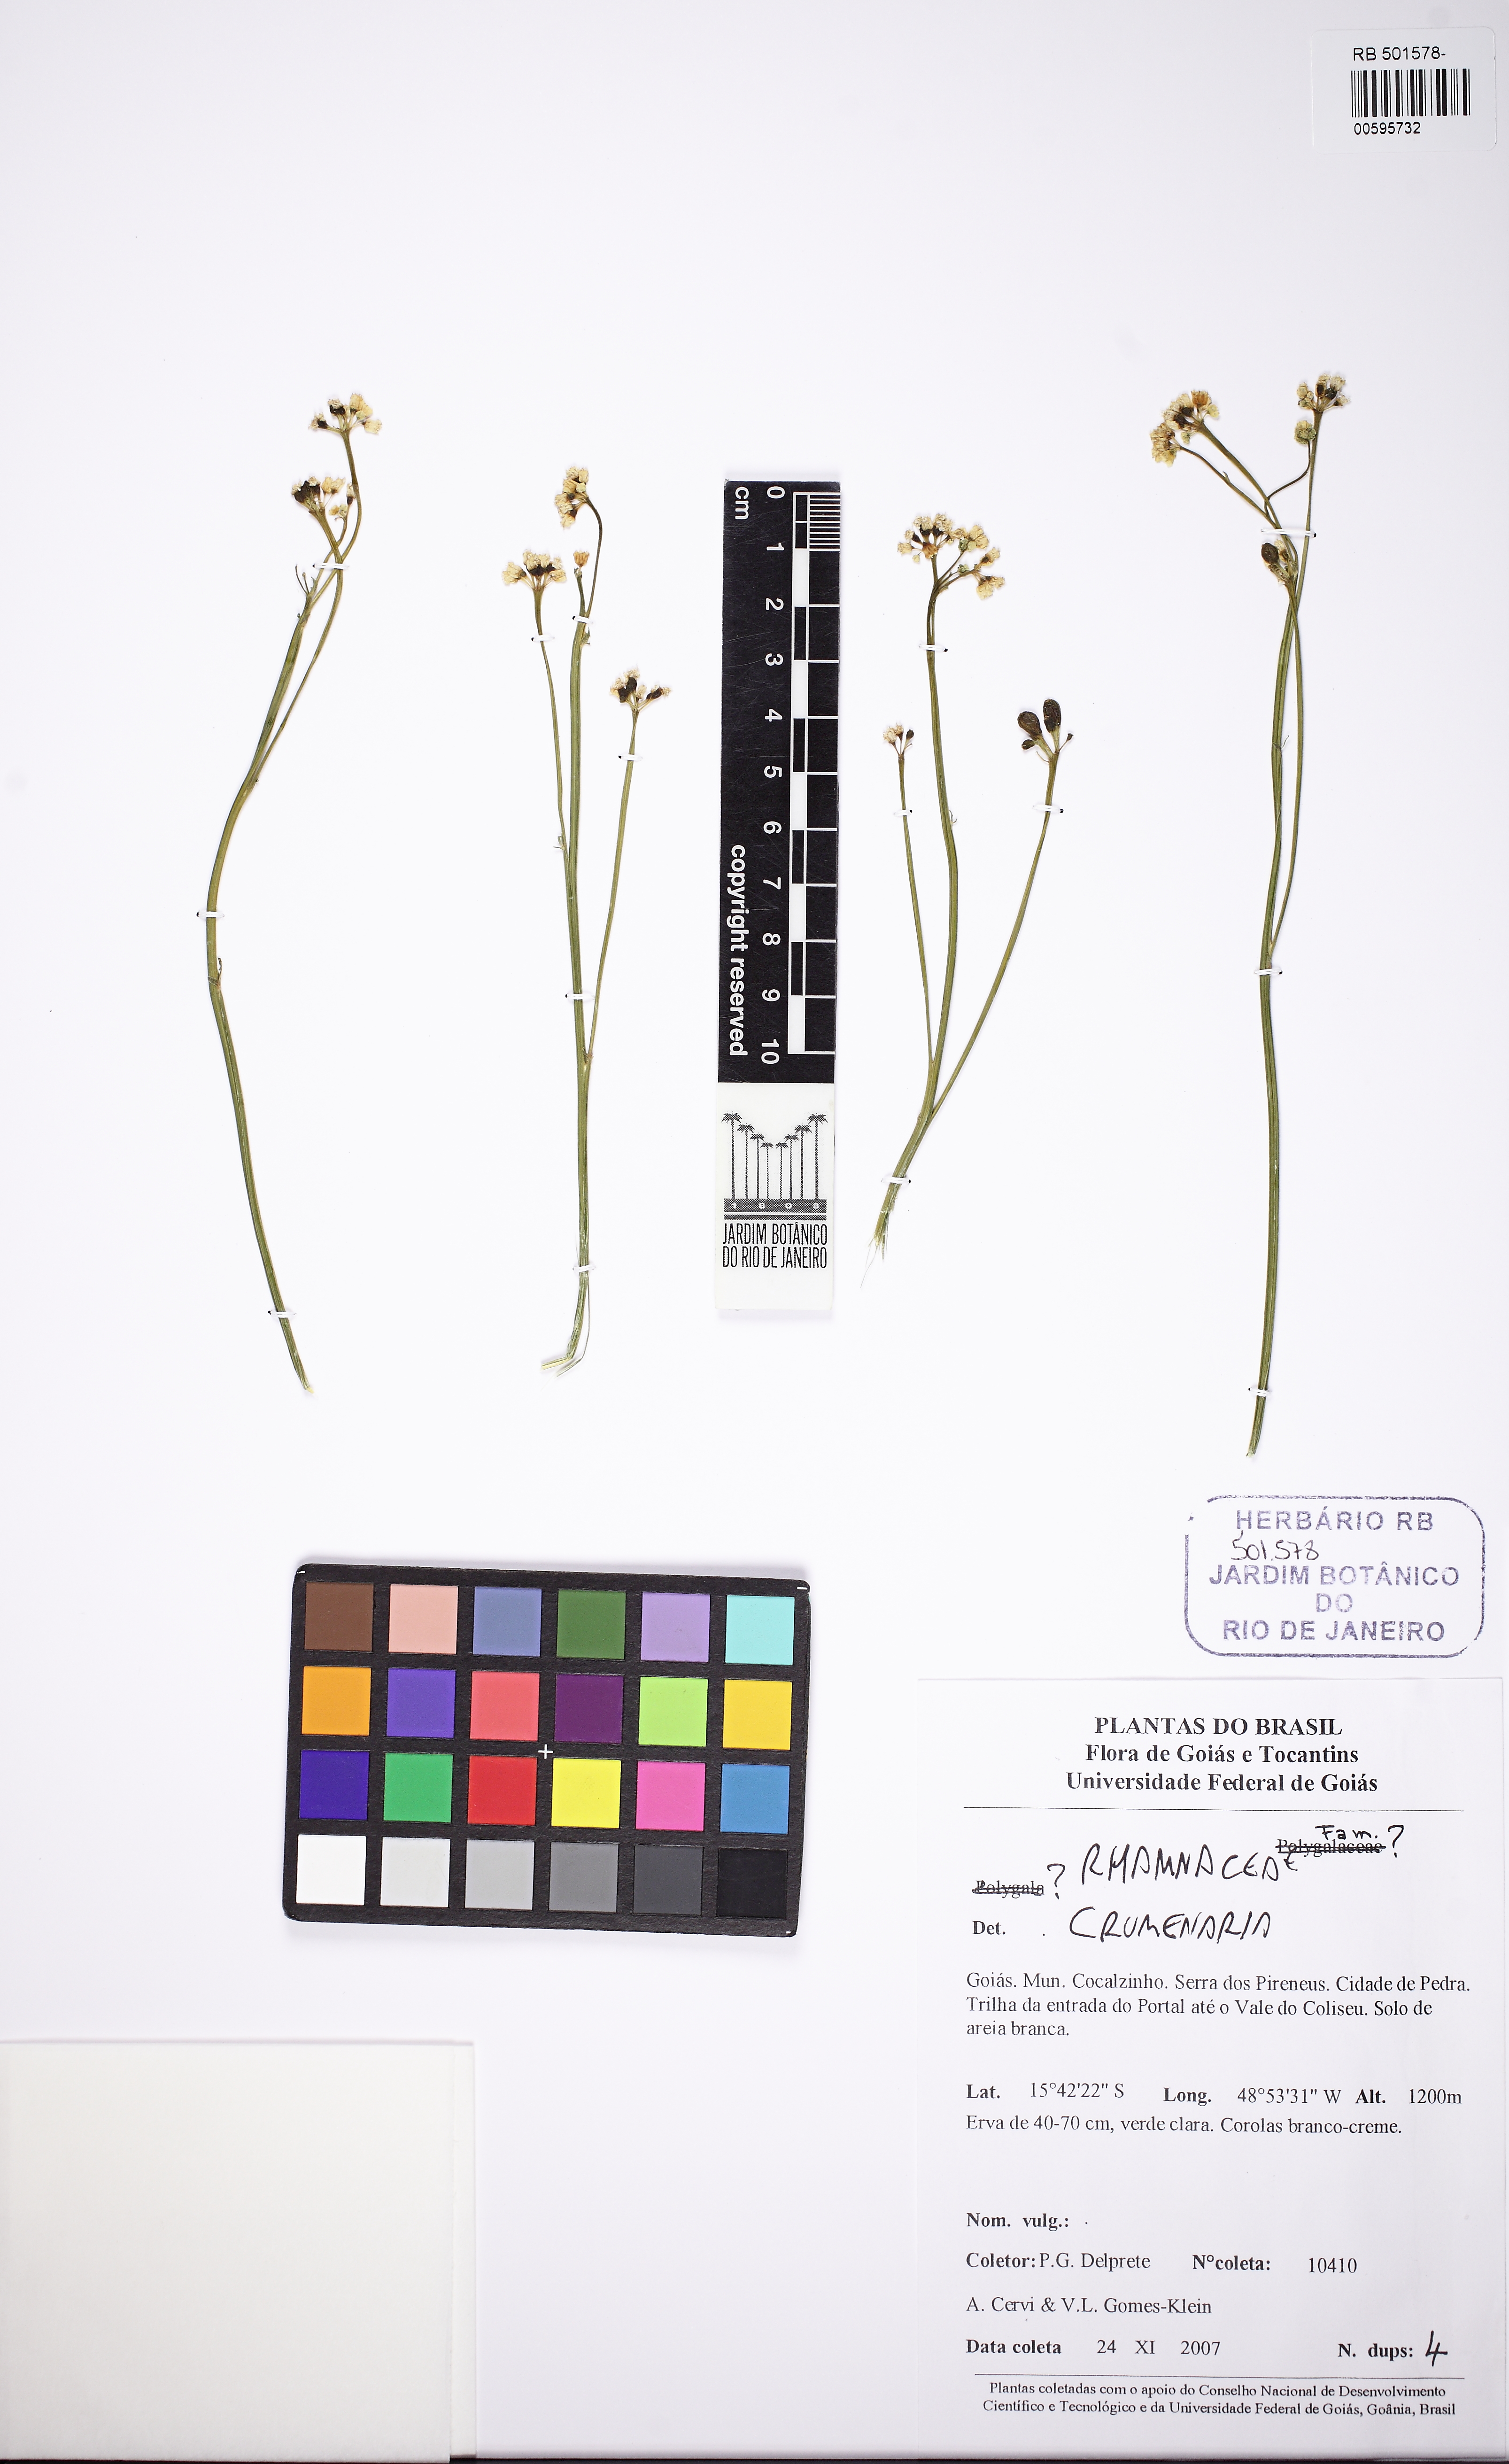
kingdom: Plantae
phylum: Tracheophyta
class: Magnoliopsida
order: Rosales
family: Rhamnaceae
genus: Crumenaria
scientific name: Crumenaria
